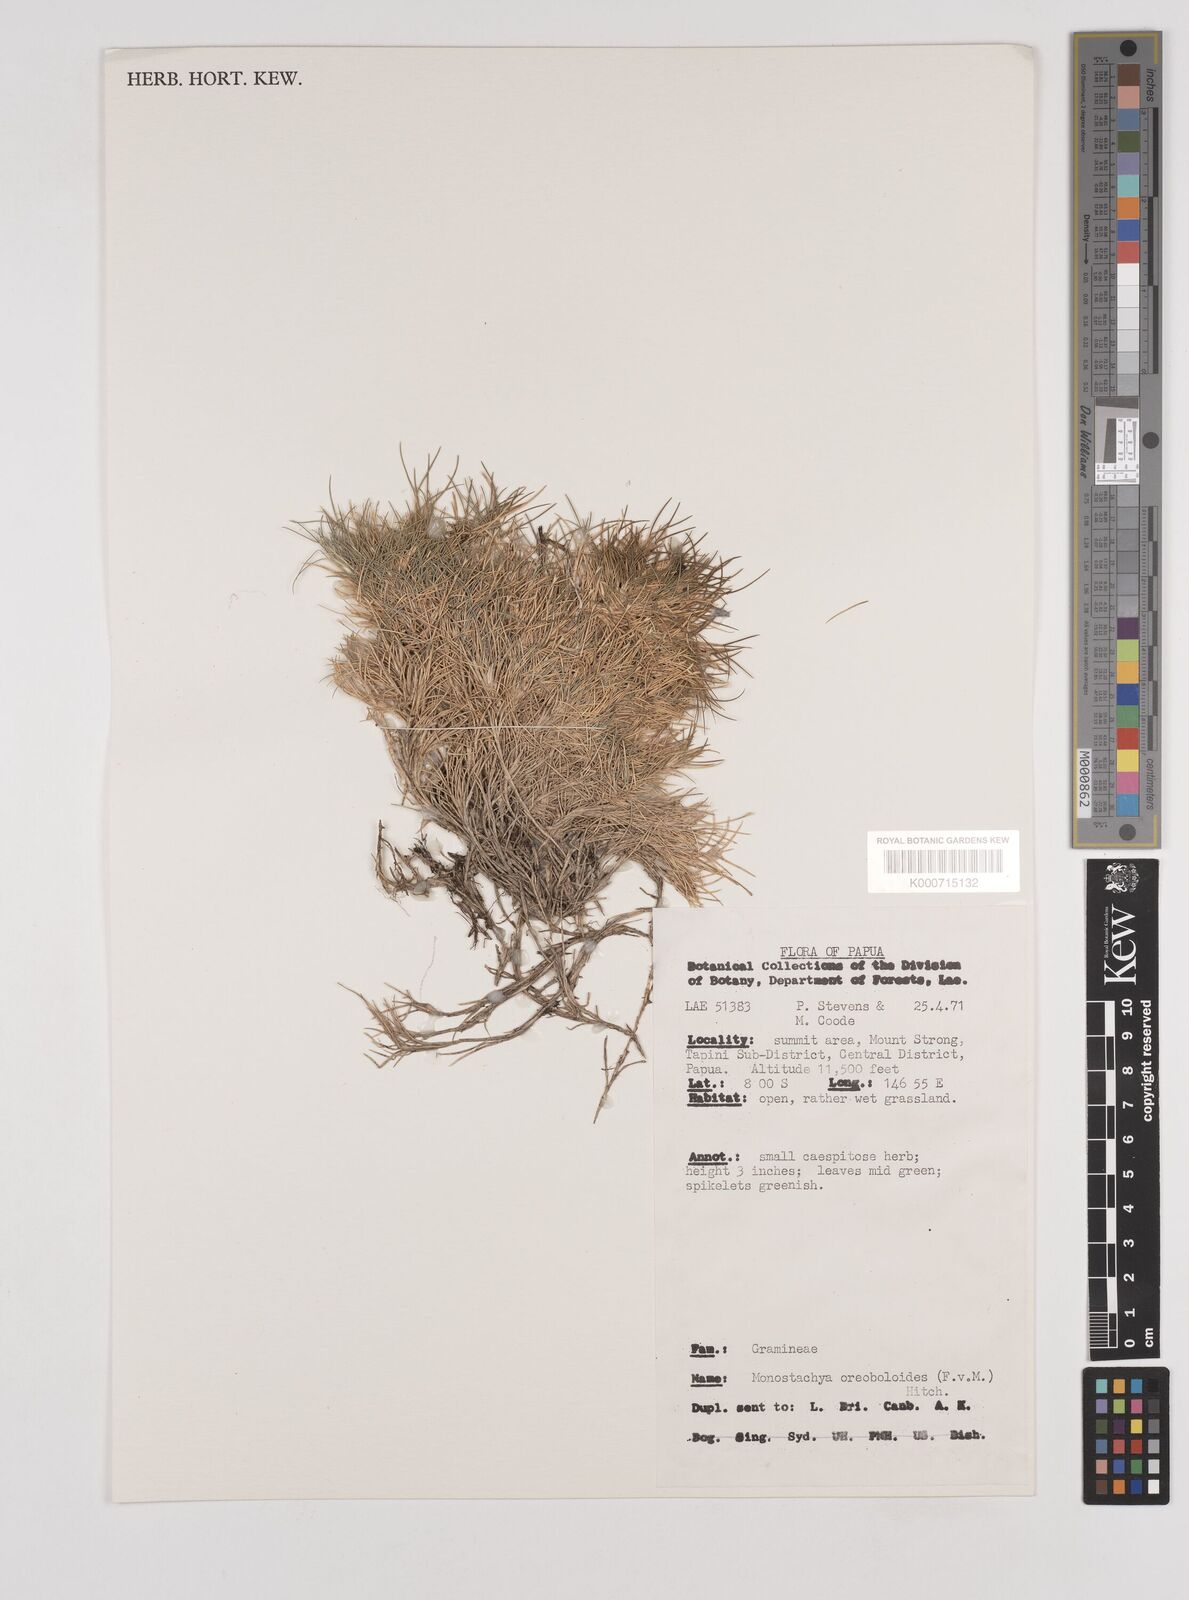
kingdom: Plantae
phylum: Tracheophyta
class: Liliopsida
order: Poales
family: Poaceae
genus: Rytidosperma
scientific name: Rytidosperma oreoboloides
